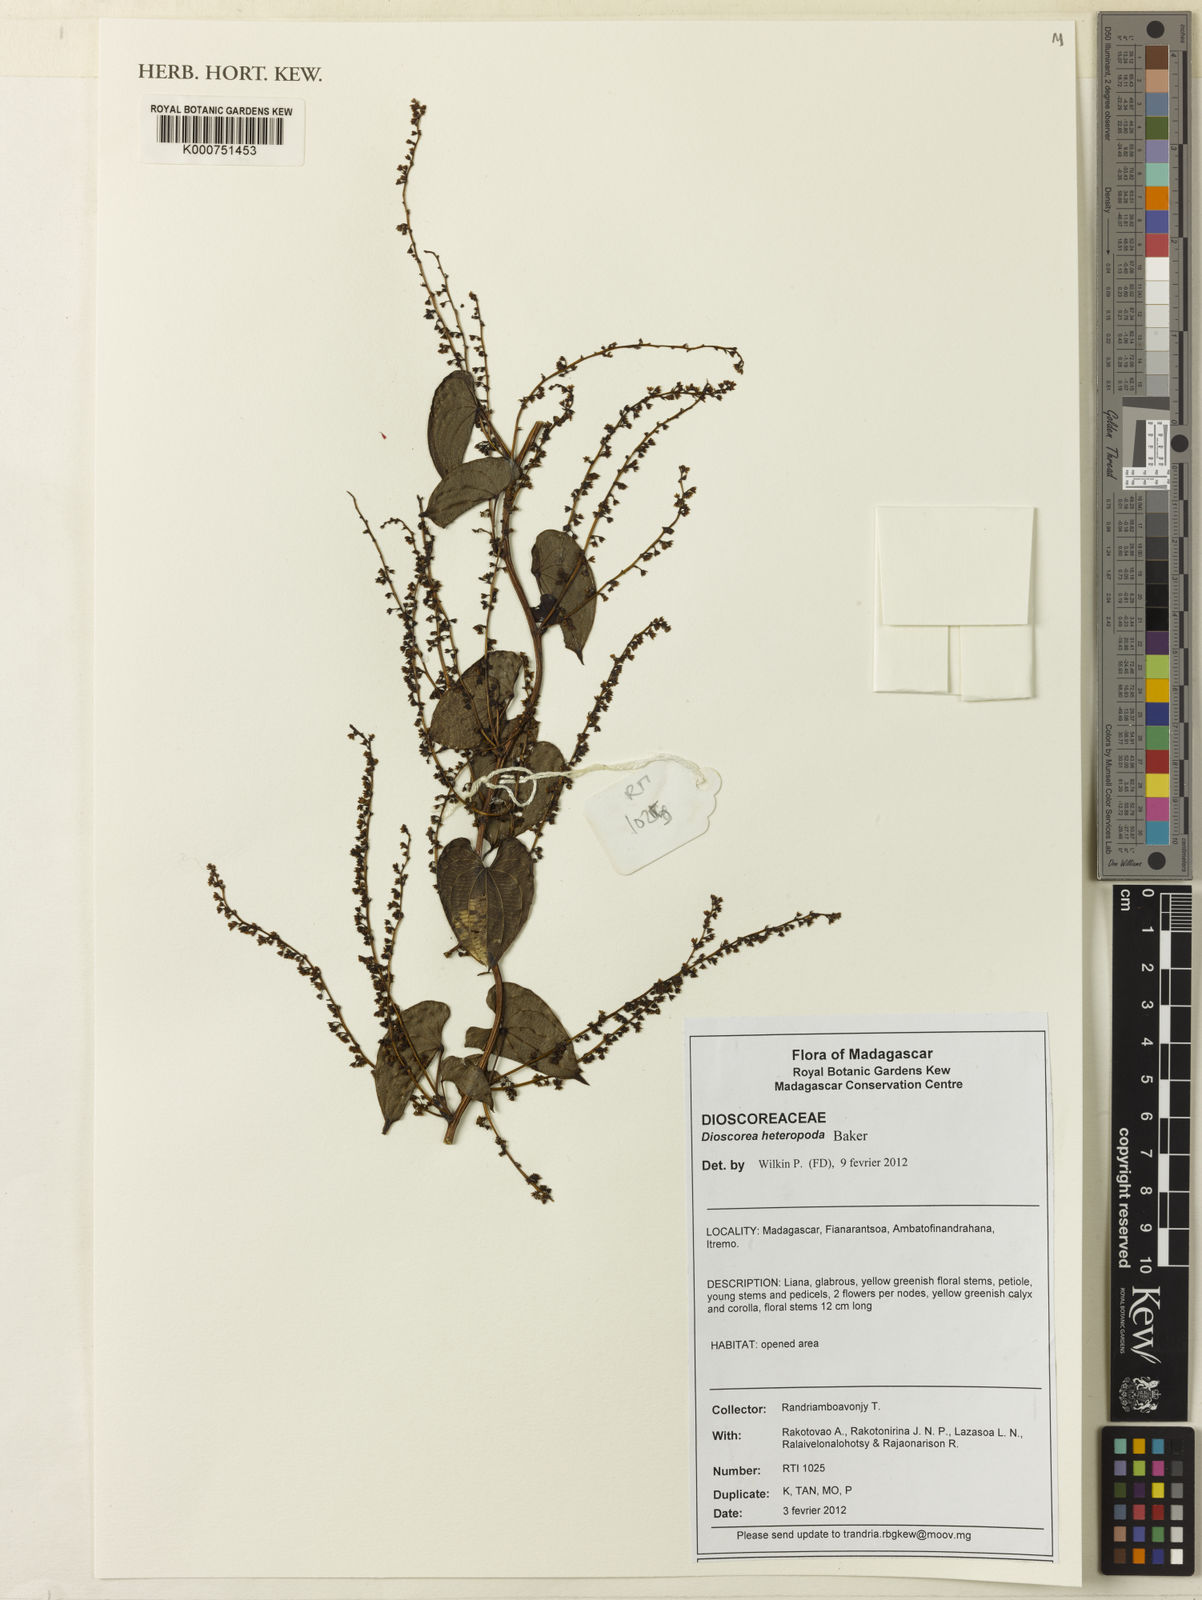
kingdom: Plantae
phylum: Tracheophyta
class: Liliopsida
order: Dioscoreales
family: Dioscoreaceae
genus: Dioscorea
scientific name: Dioscorea heteropoda
